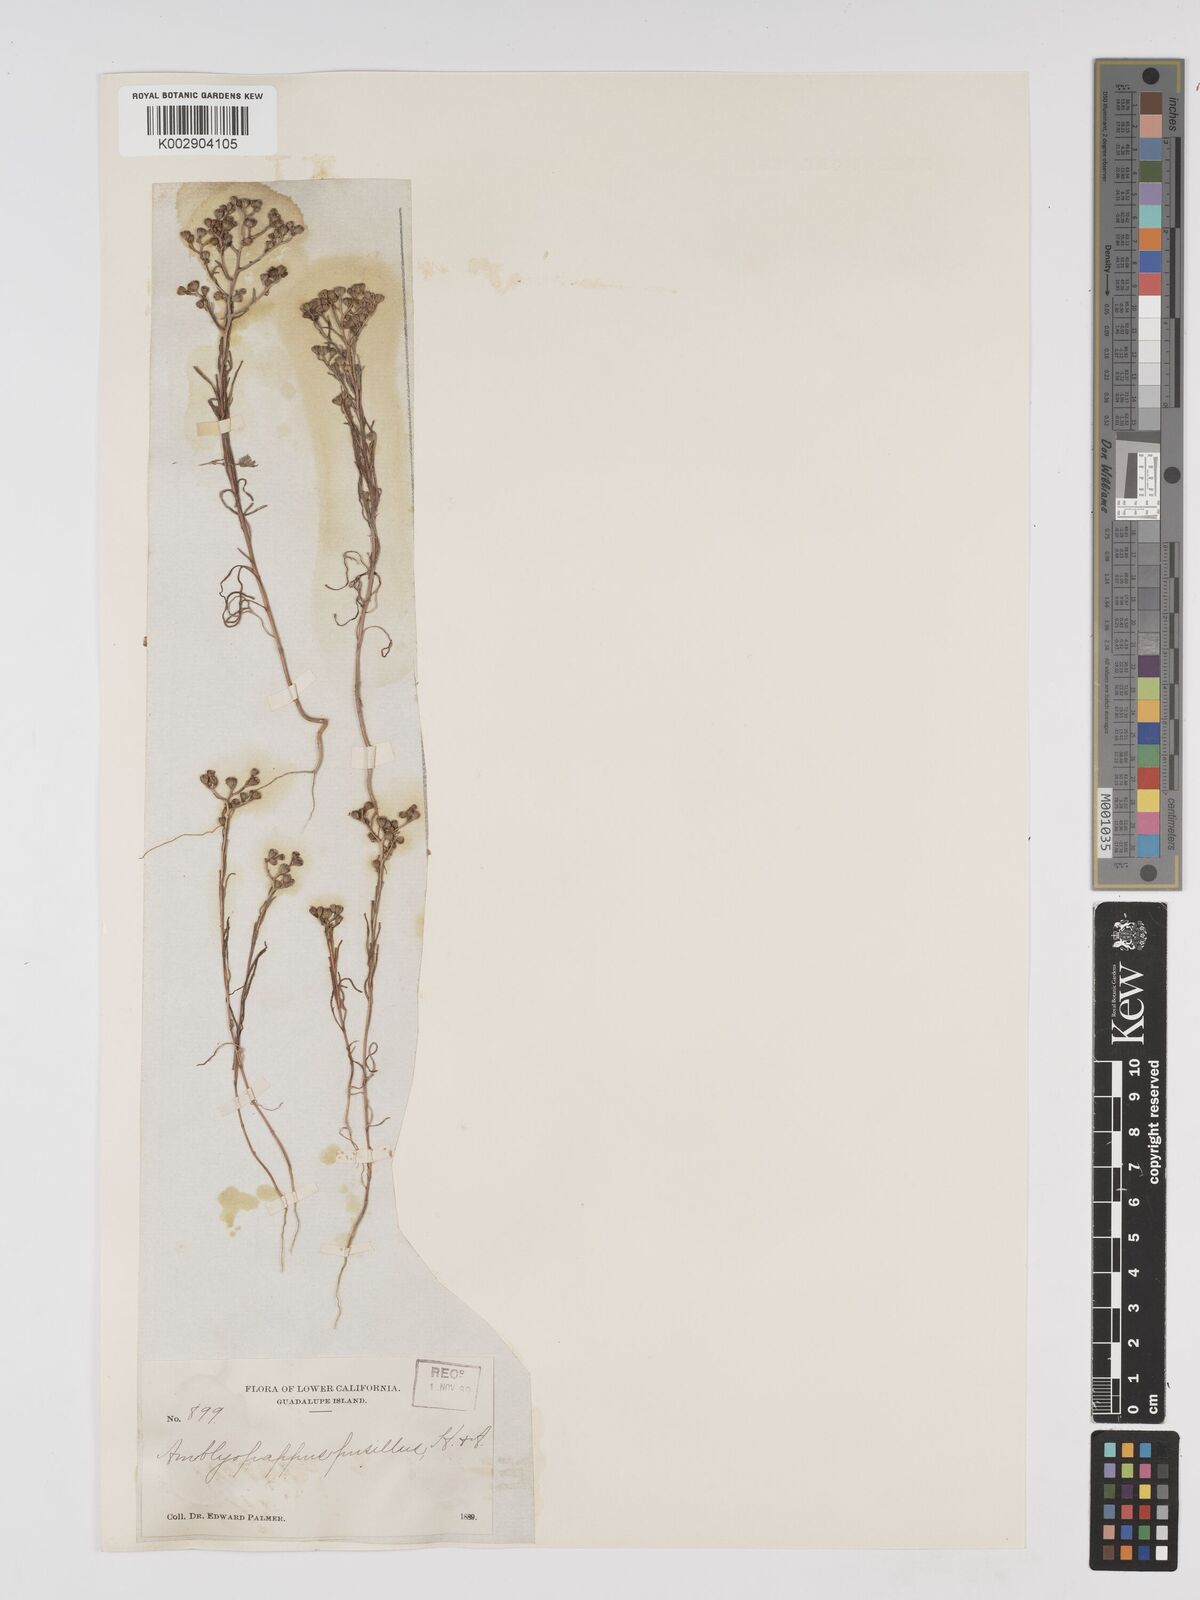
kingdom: Plantae
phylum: Tracheophyta
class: Magnoliopsida
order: Asterales
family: Asteraceae
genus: Amblyopappus
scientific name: Amblyopappus pusillus
